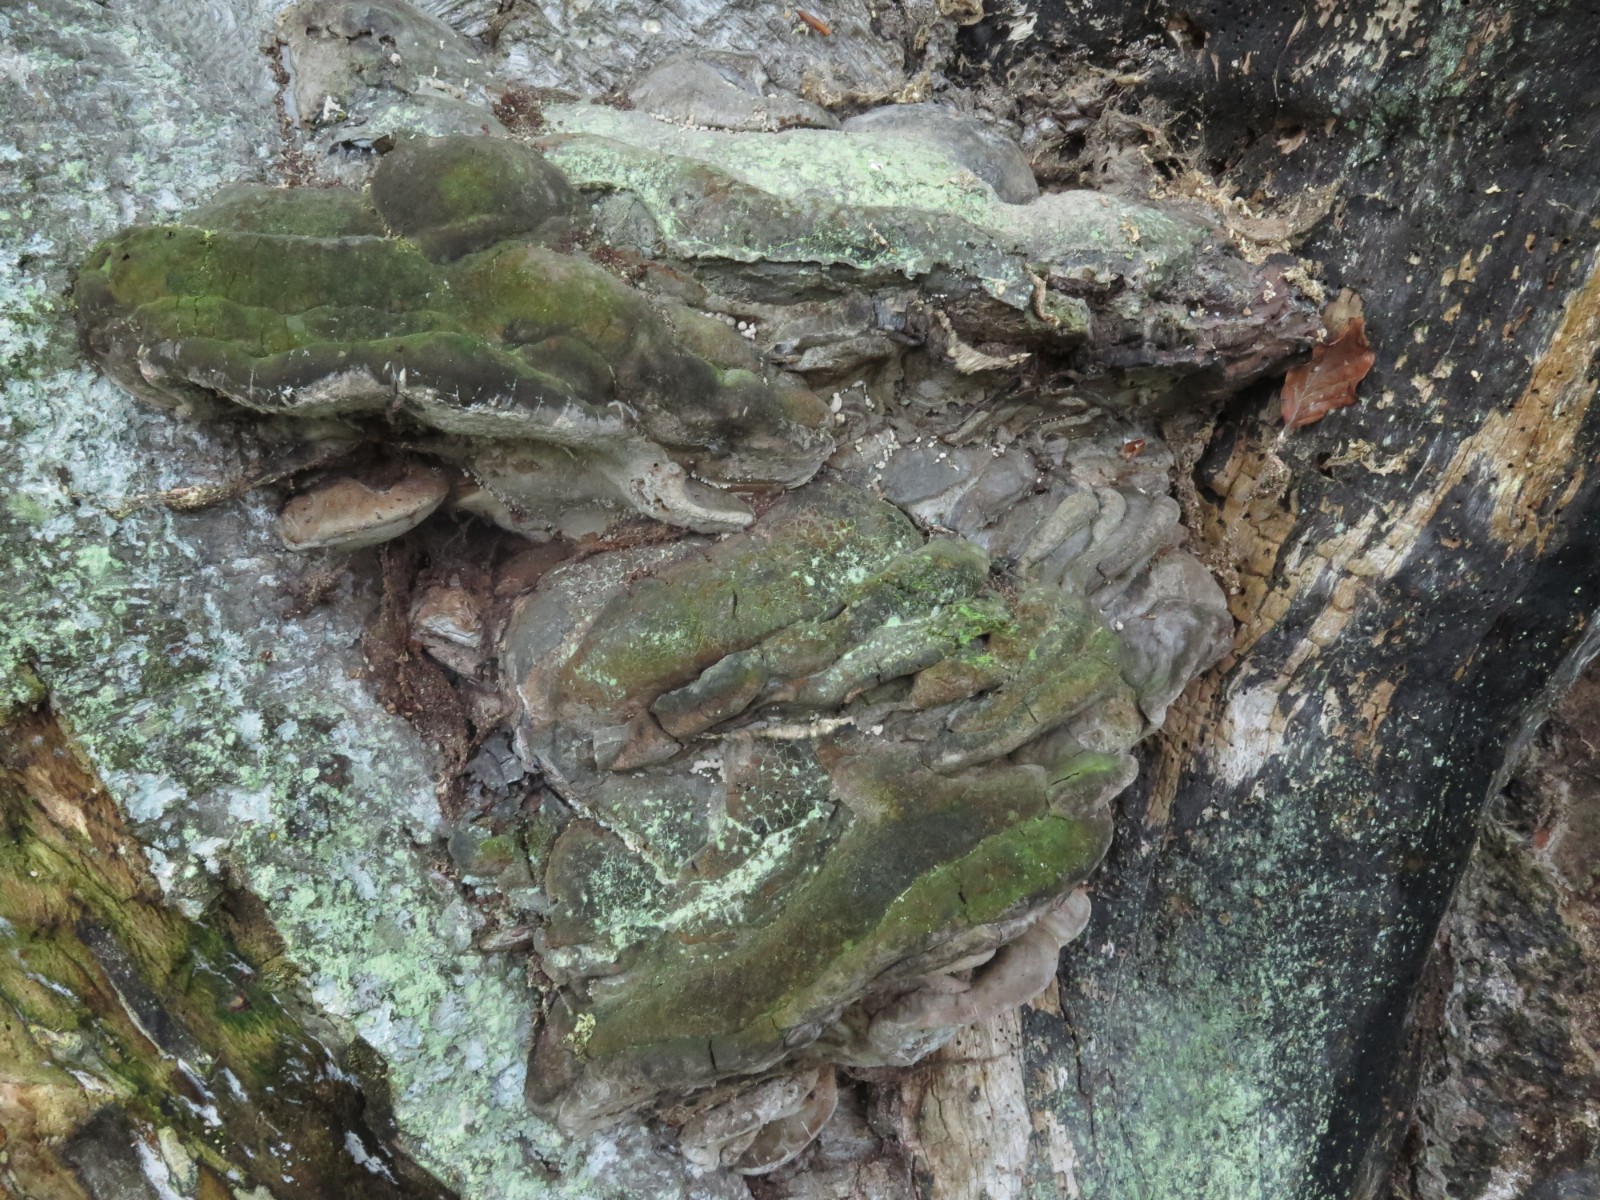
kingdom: Fungi
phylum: Basidiomycota
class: Agaricomycetes
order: Polyporales
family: Polyporaceae
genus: Ganoderma
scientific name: Ganoderma adspersum
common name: grov lakporesvamp
